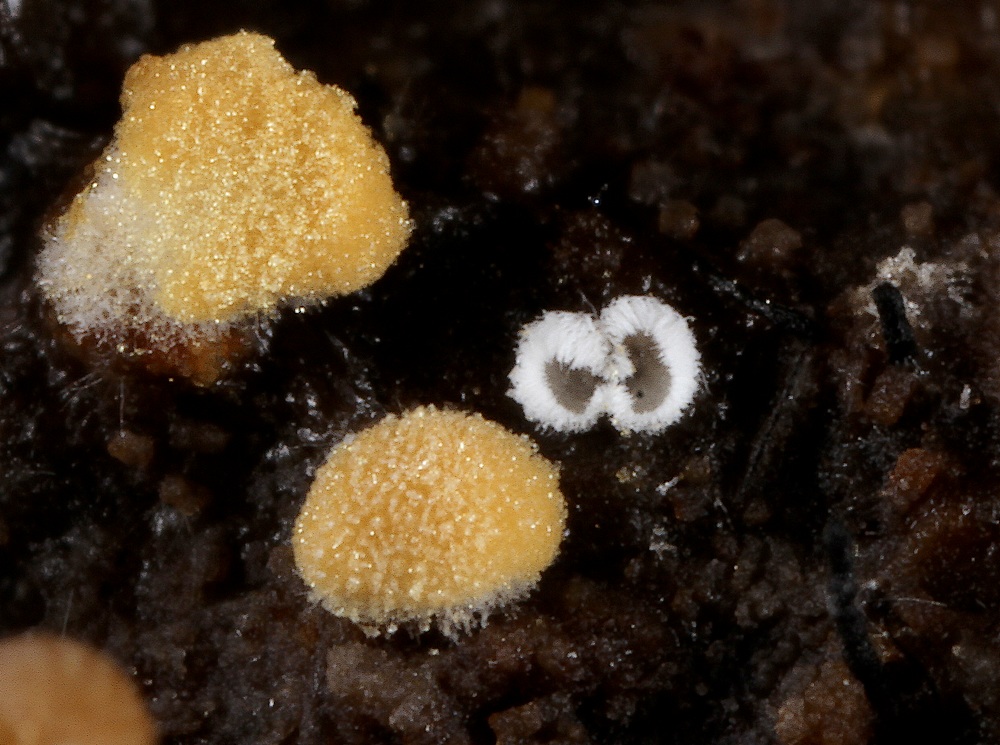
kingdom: Fungi
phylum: Basidiomycota
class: Agaricomycetes
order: Agaricales
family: Niaceae
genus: Flagelloscypha
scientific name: Flagelloscypha
